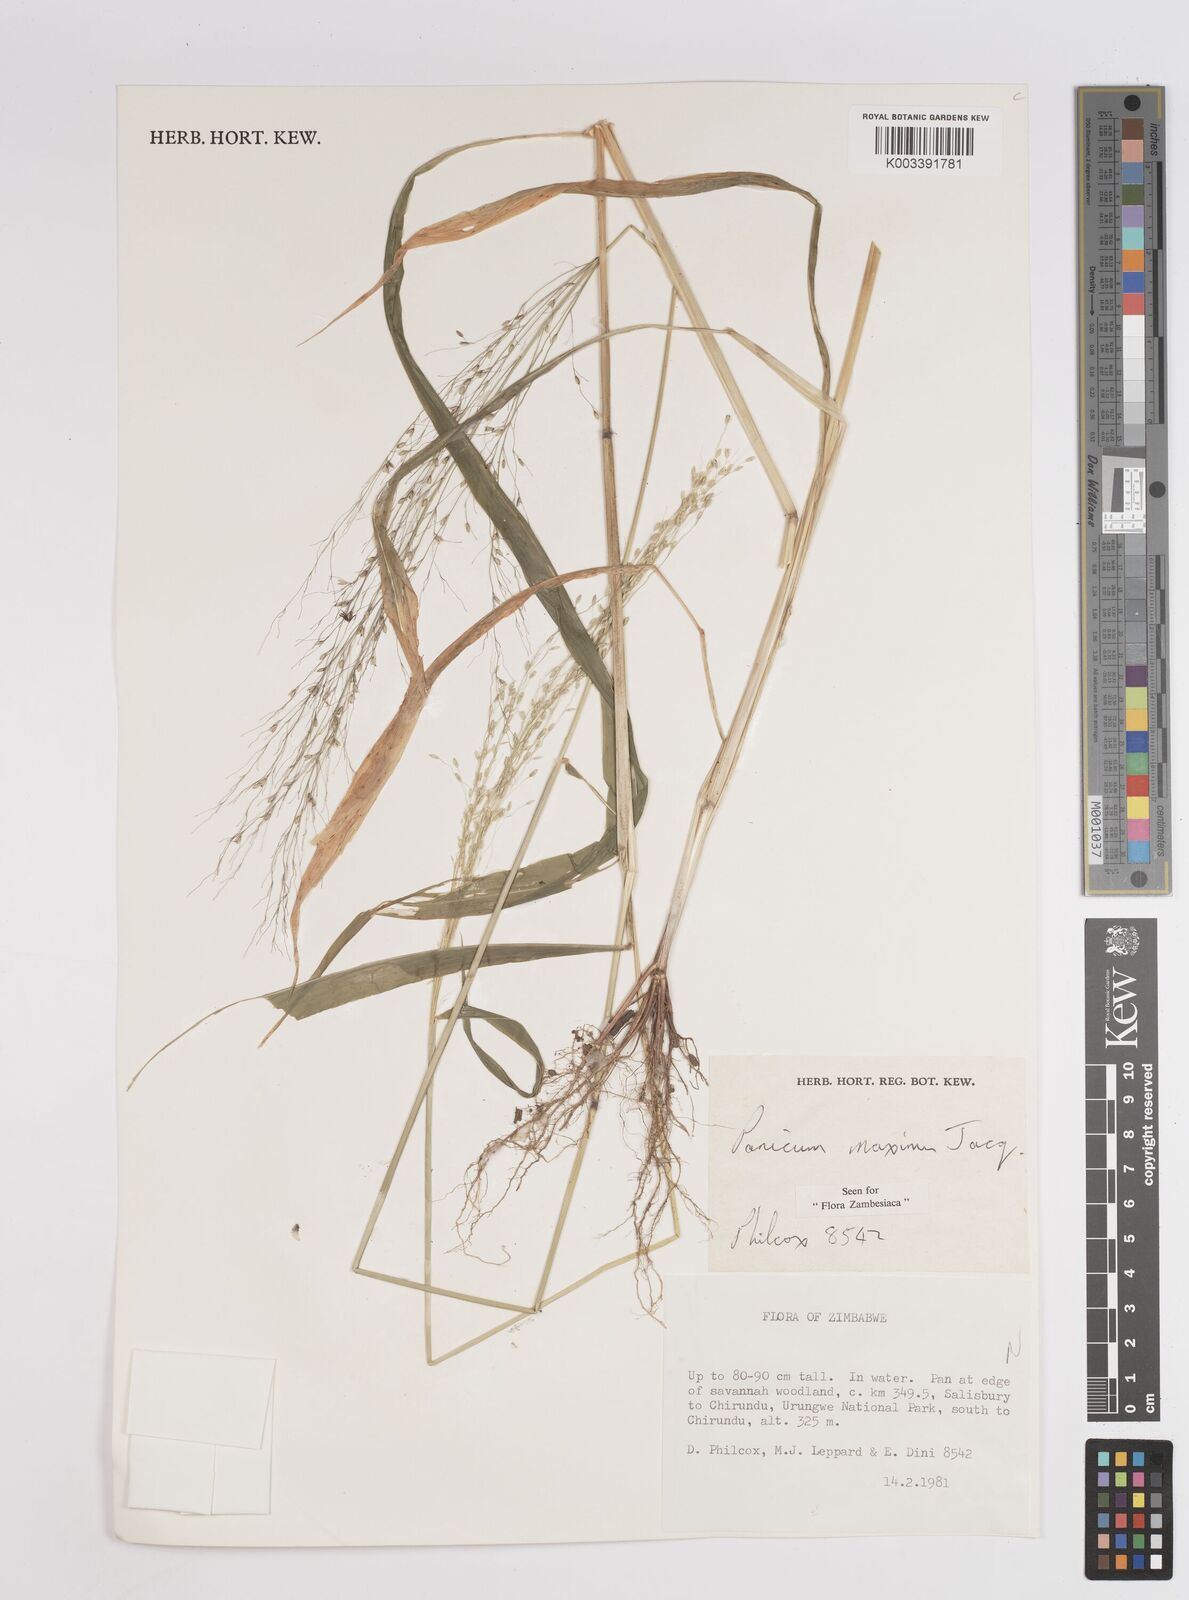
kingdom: Plantae
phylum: Tracheophyta
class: Liliopsida
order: Poales
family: Poaceae
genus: Megathyrsus
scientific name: Megathyrsus maximus
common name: Guineagrass
